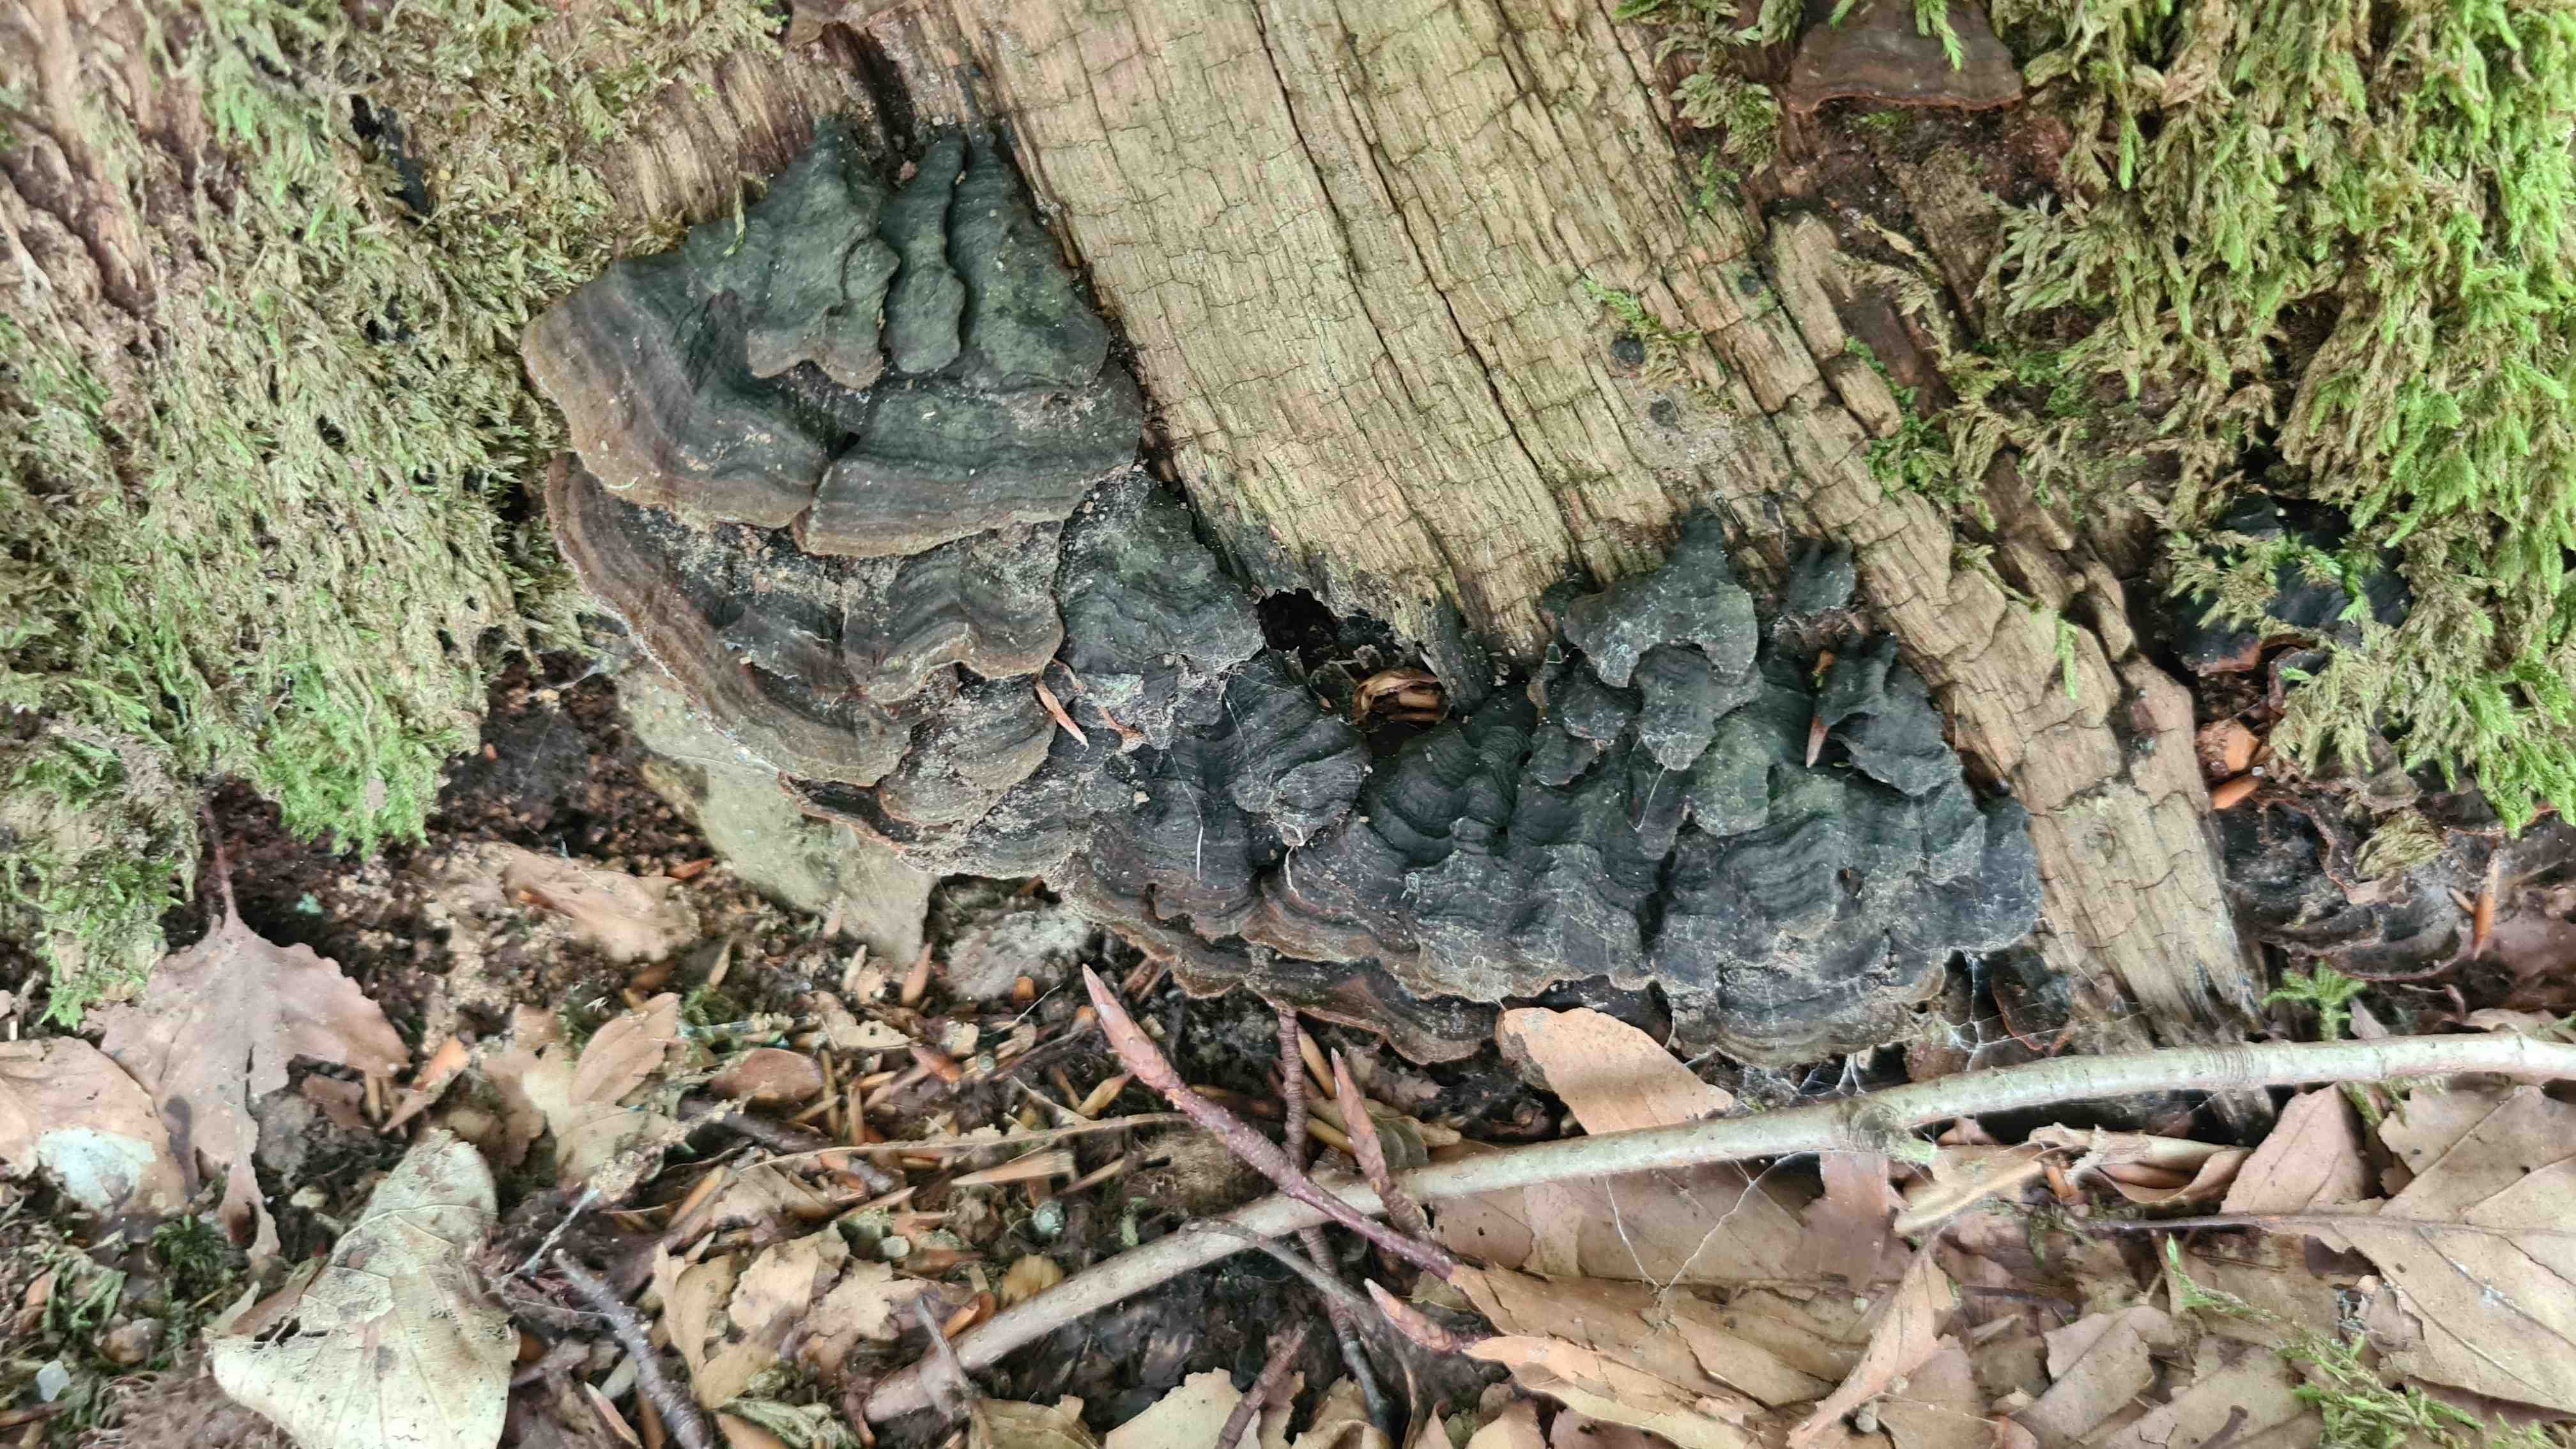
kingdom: Fungi
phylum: Basidiomycota
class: Agaricomycetes
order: Hymenochaetales
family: Hymenochaetaceae
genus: Hymenochaete
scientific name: Hymenochaete rubiginosa
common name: stiv ruslædersvamp
